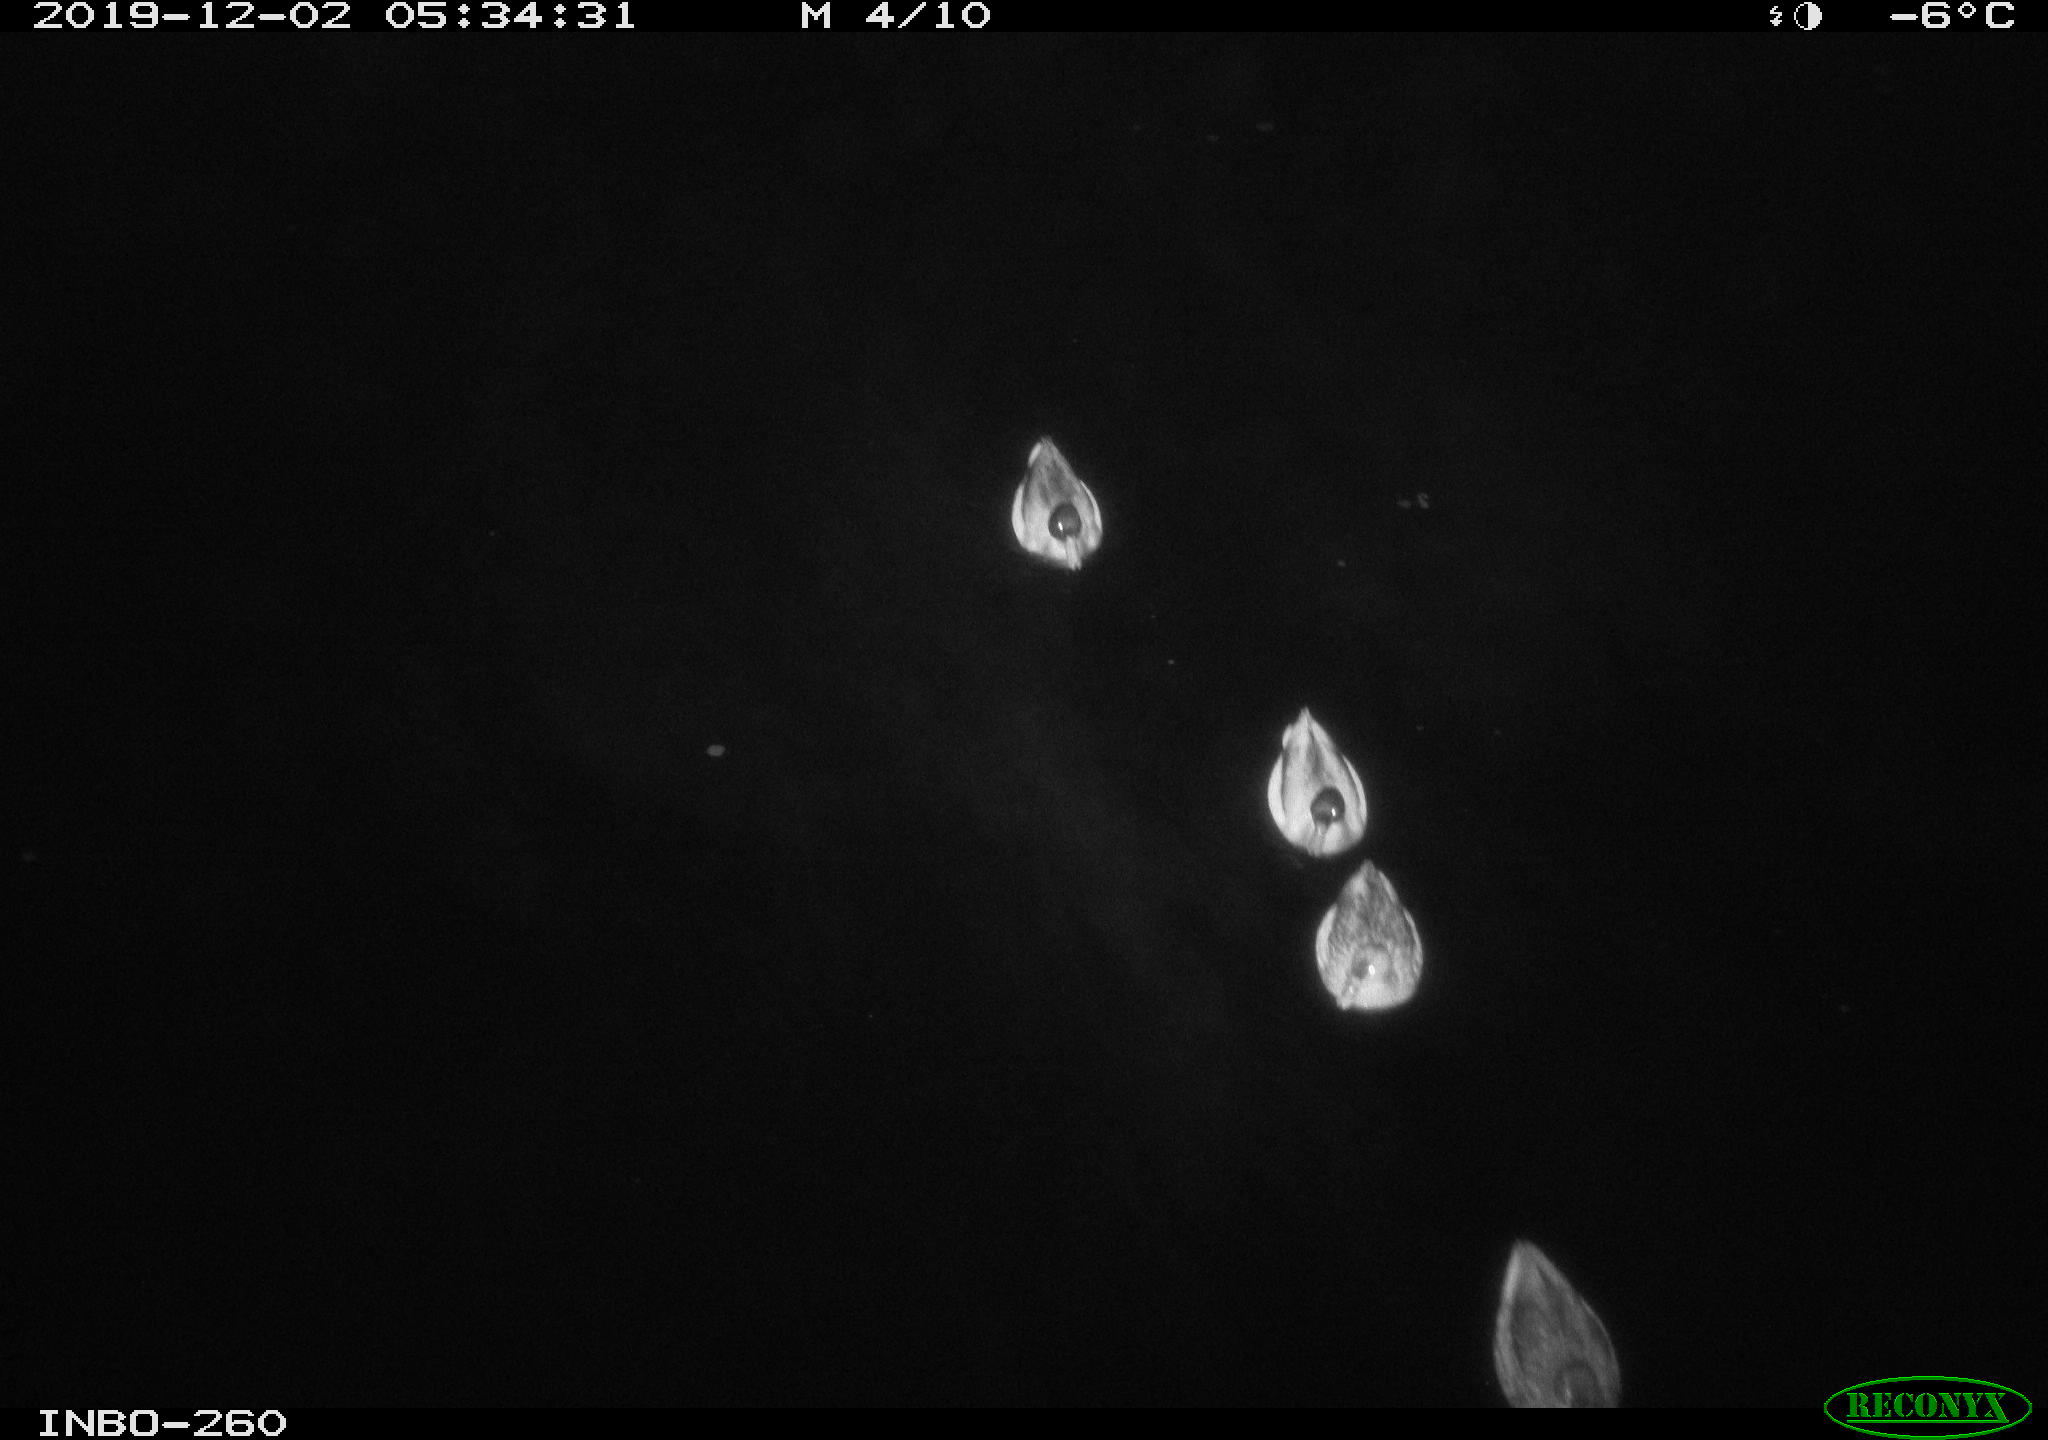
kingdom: Animalia
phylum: Chordata
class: Aves
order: Anseriformes
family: Anatidae
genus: Anas
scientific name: Anas platyrhynchos
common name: Mallard
